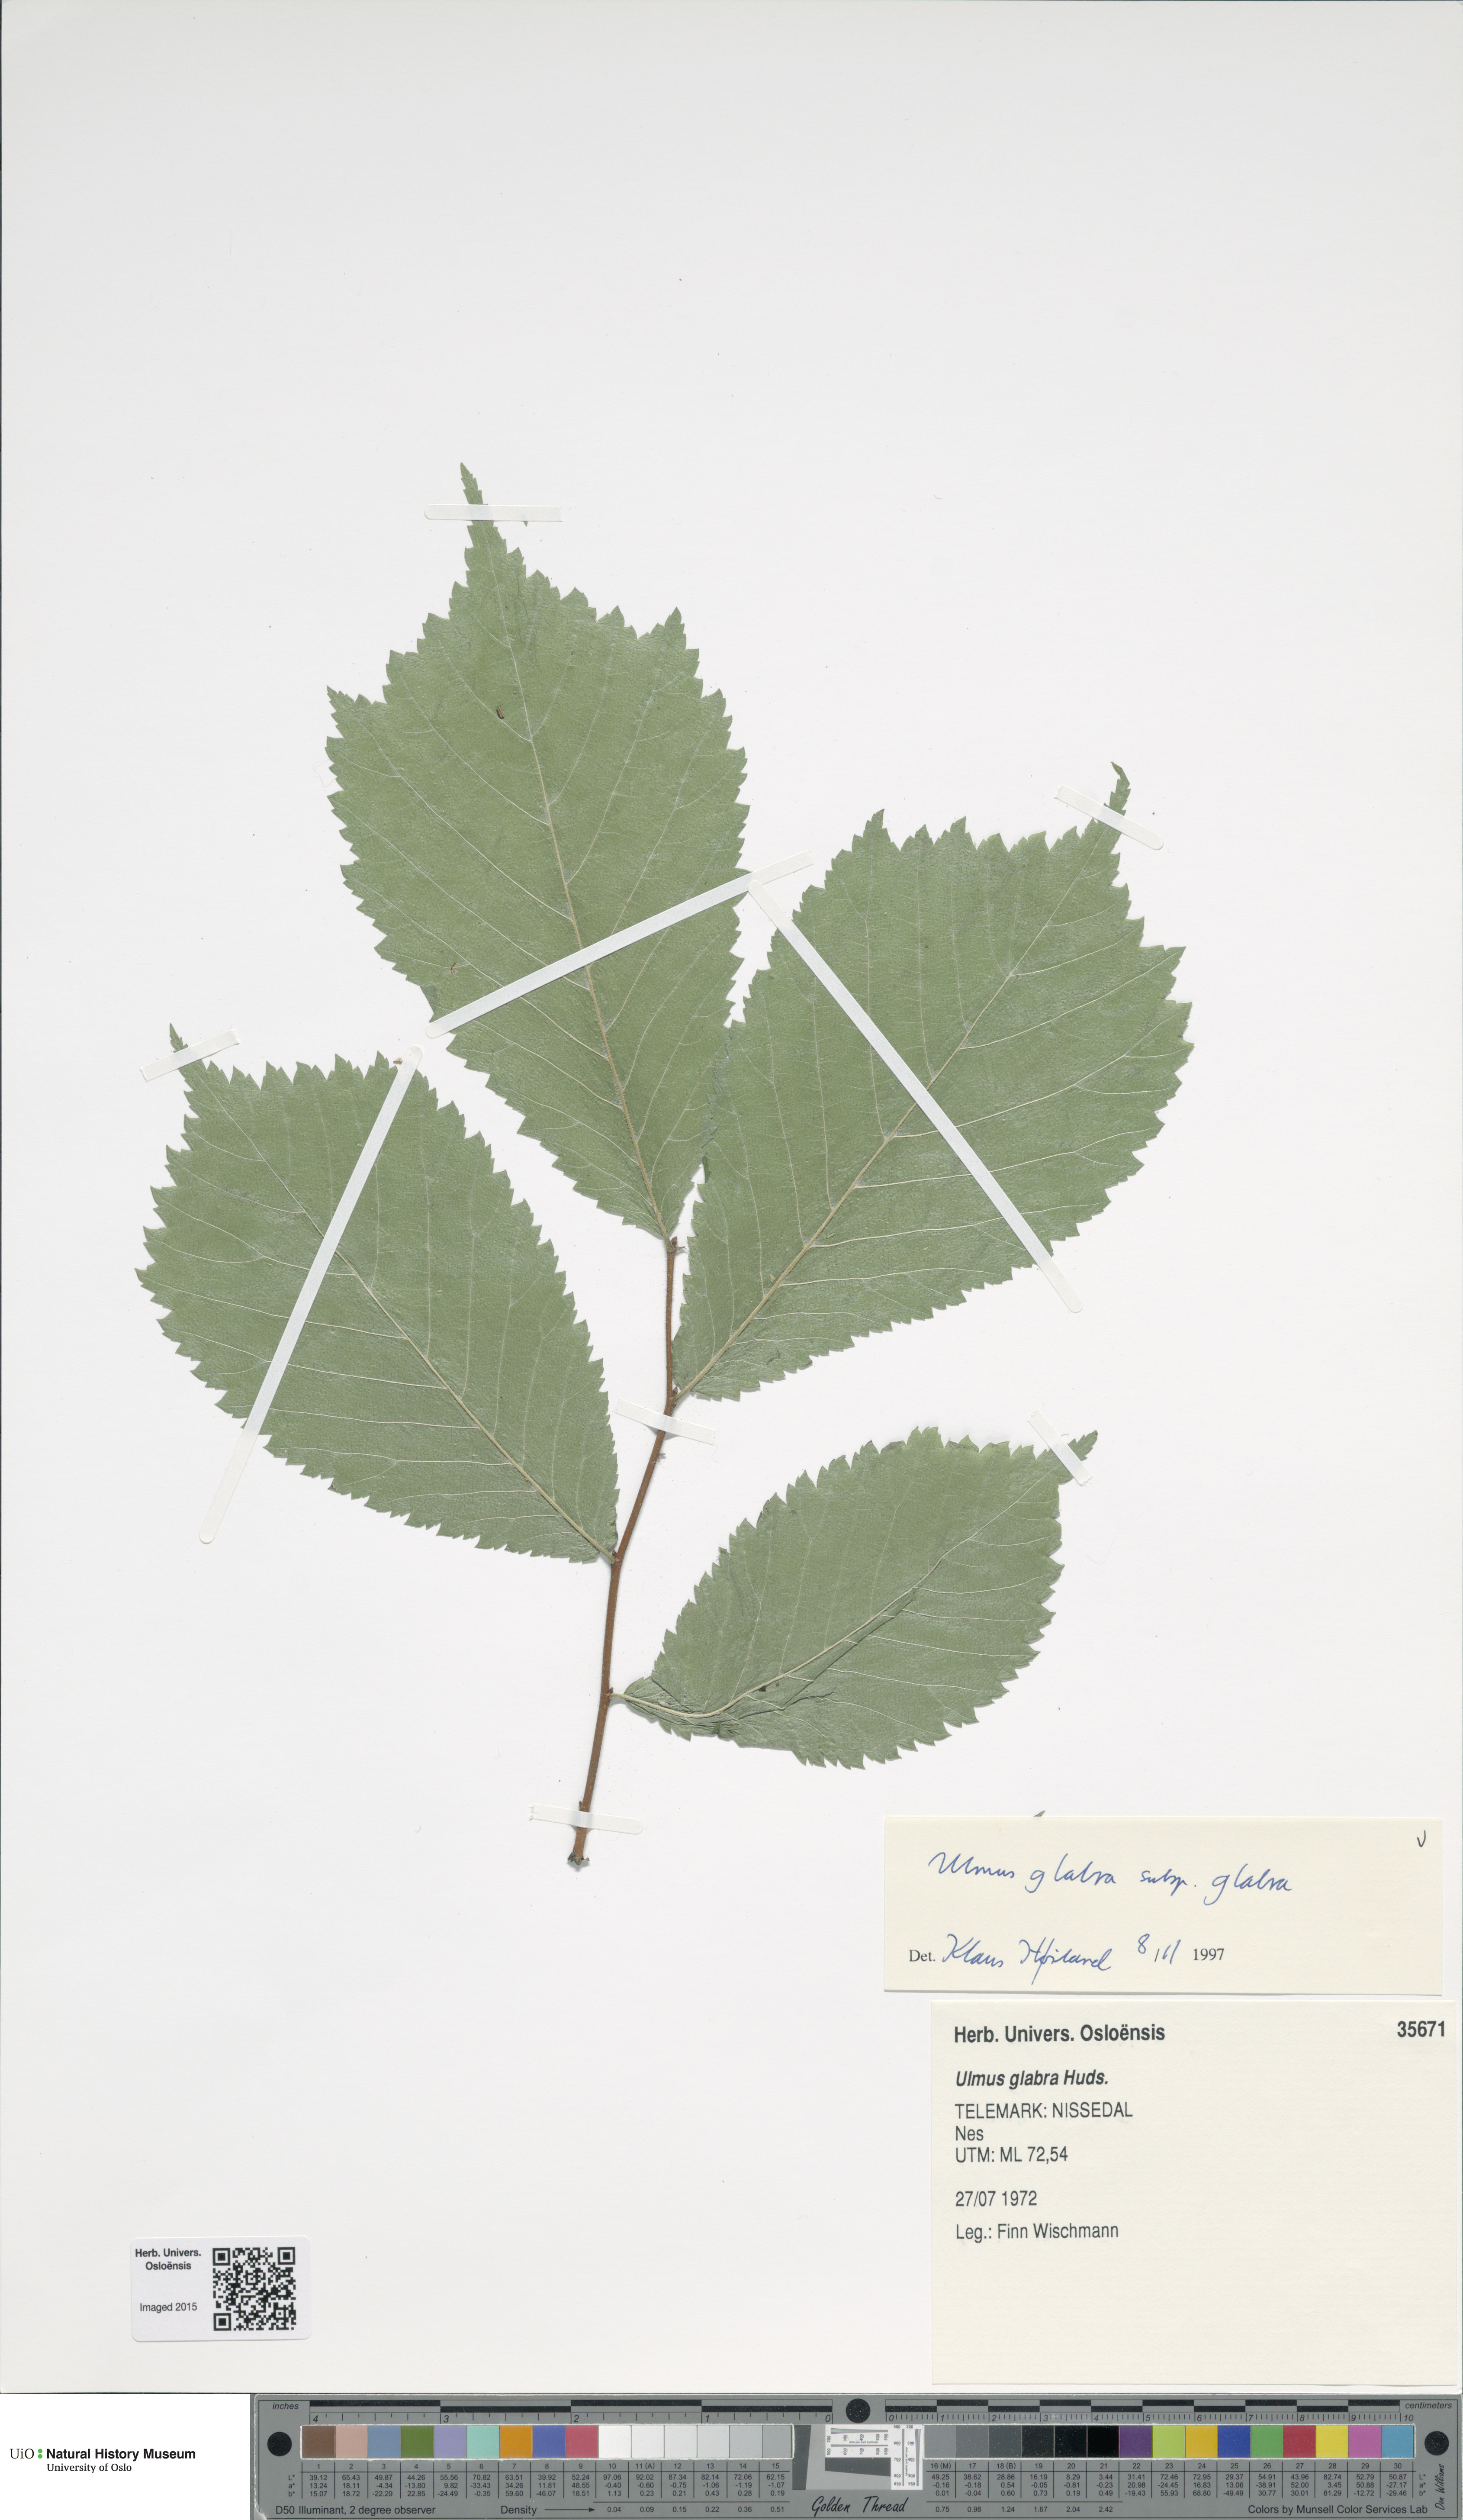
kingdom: Plantae
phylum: Tracheophyta
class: Magnoliopsida
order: Rosales
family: Ulmaceae
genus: Ulmus
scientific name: Ulmus glabra
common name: Wych elm
